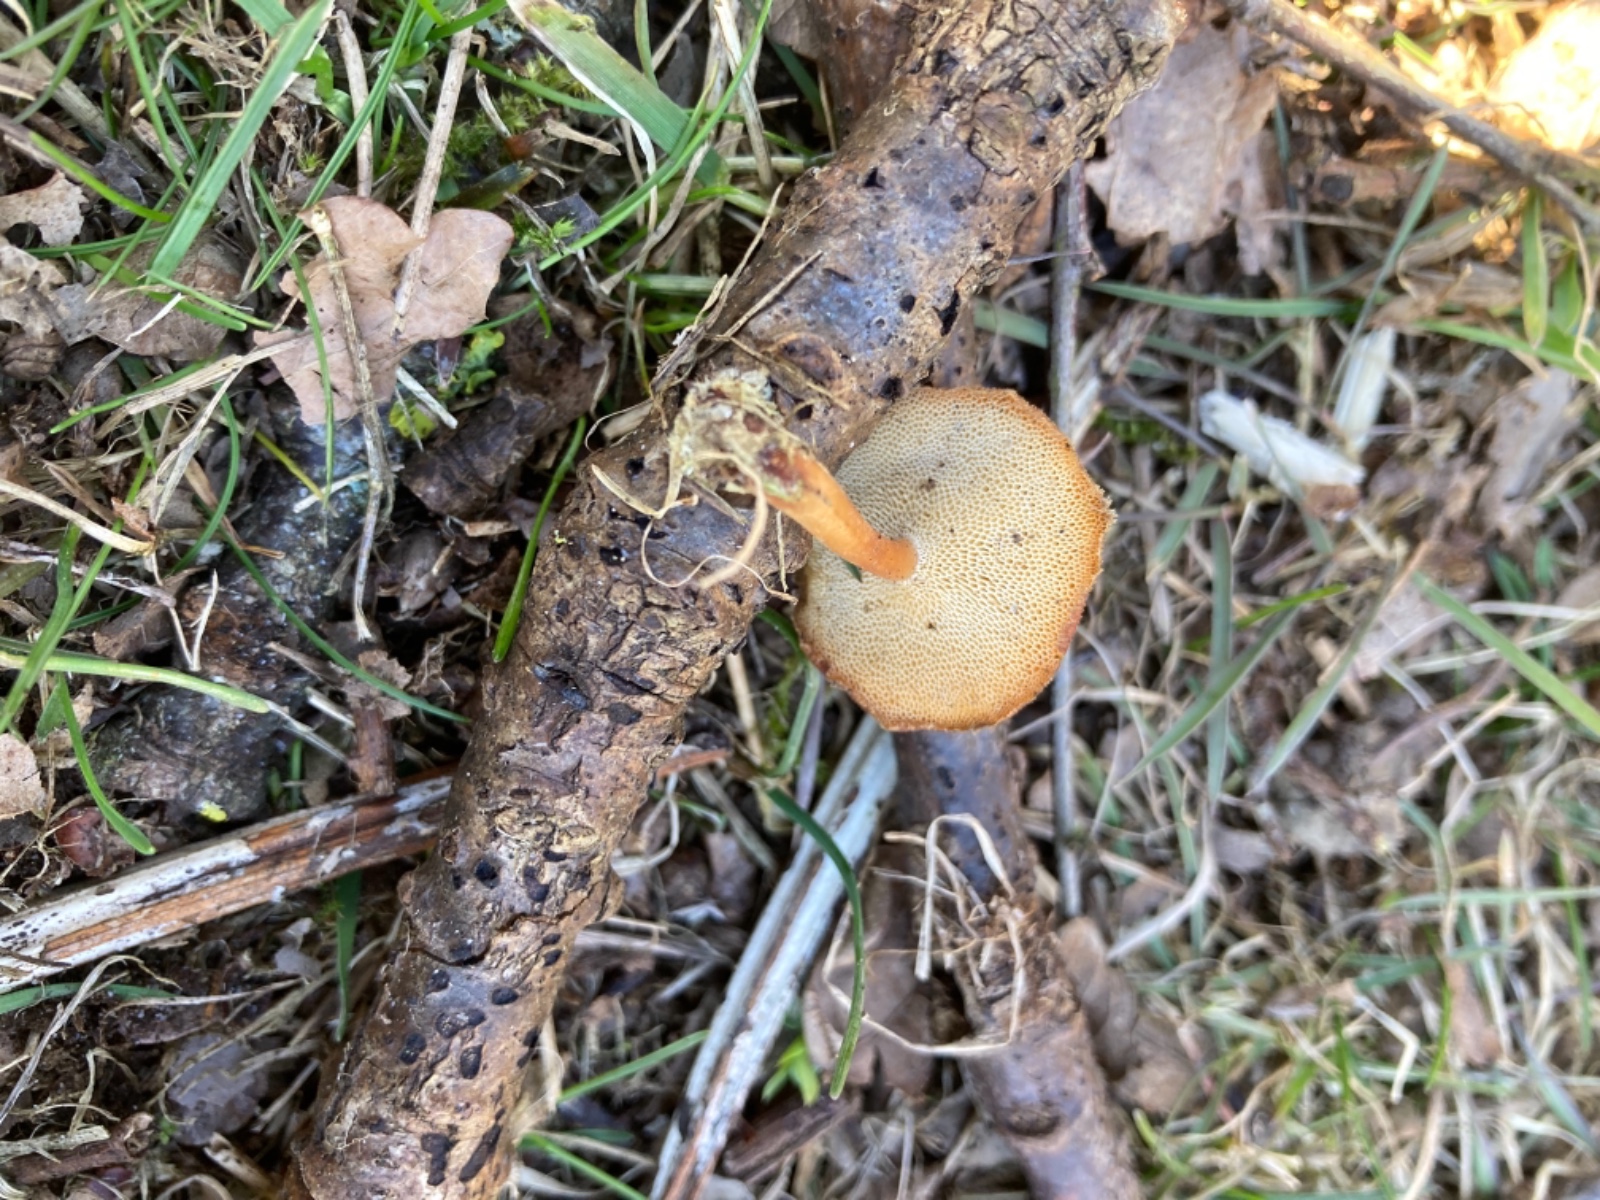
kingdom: Fungi
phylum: Basidiomycota
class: Agaricomycetes
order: Polyporales
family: Polyporaceae
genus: Lentinus
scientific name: Lentinus brumalis
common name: vinter-stilkporesvamp
